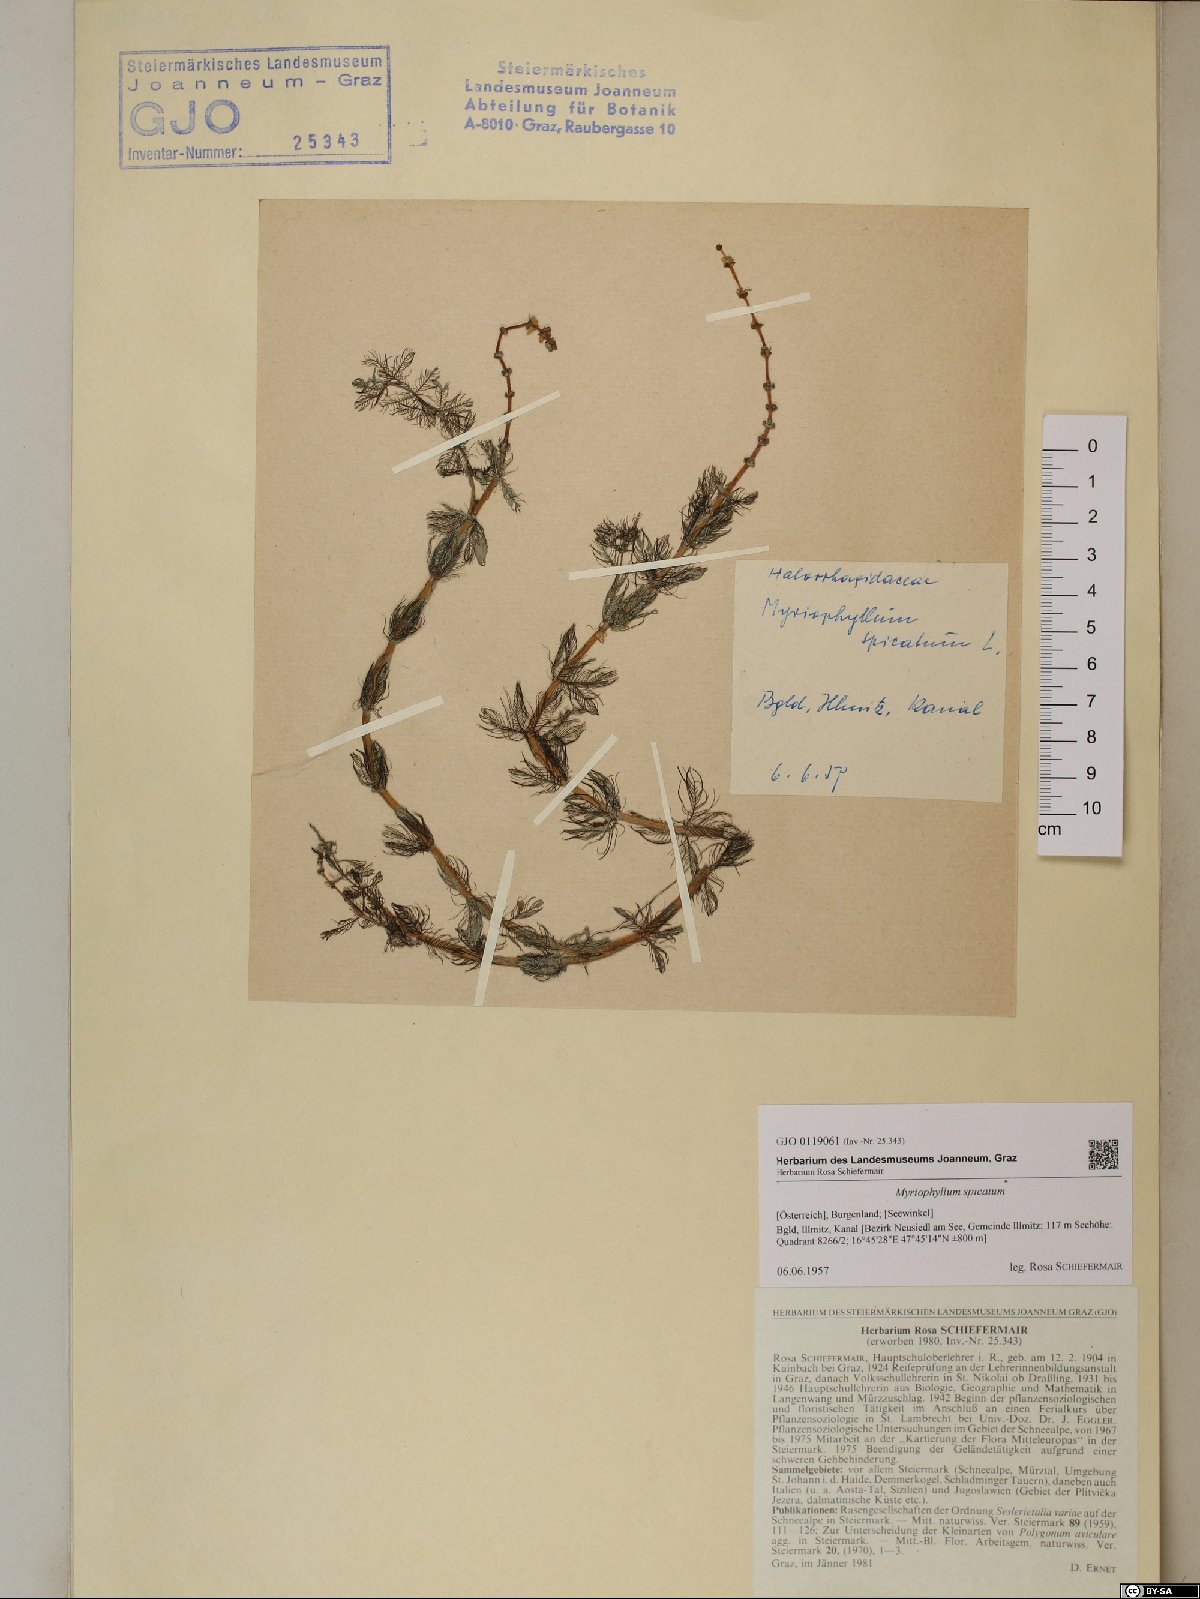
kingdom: Plantae
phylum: Tracheophyta
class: Magnoliopsida
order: Saxifragales
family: Haloragaceae
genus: Myriophyllum
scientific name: Myriophyllum spicatum
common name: Spiked water-milfoil
